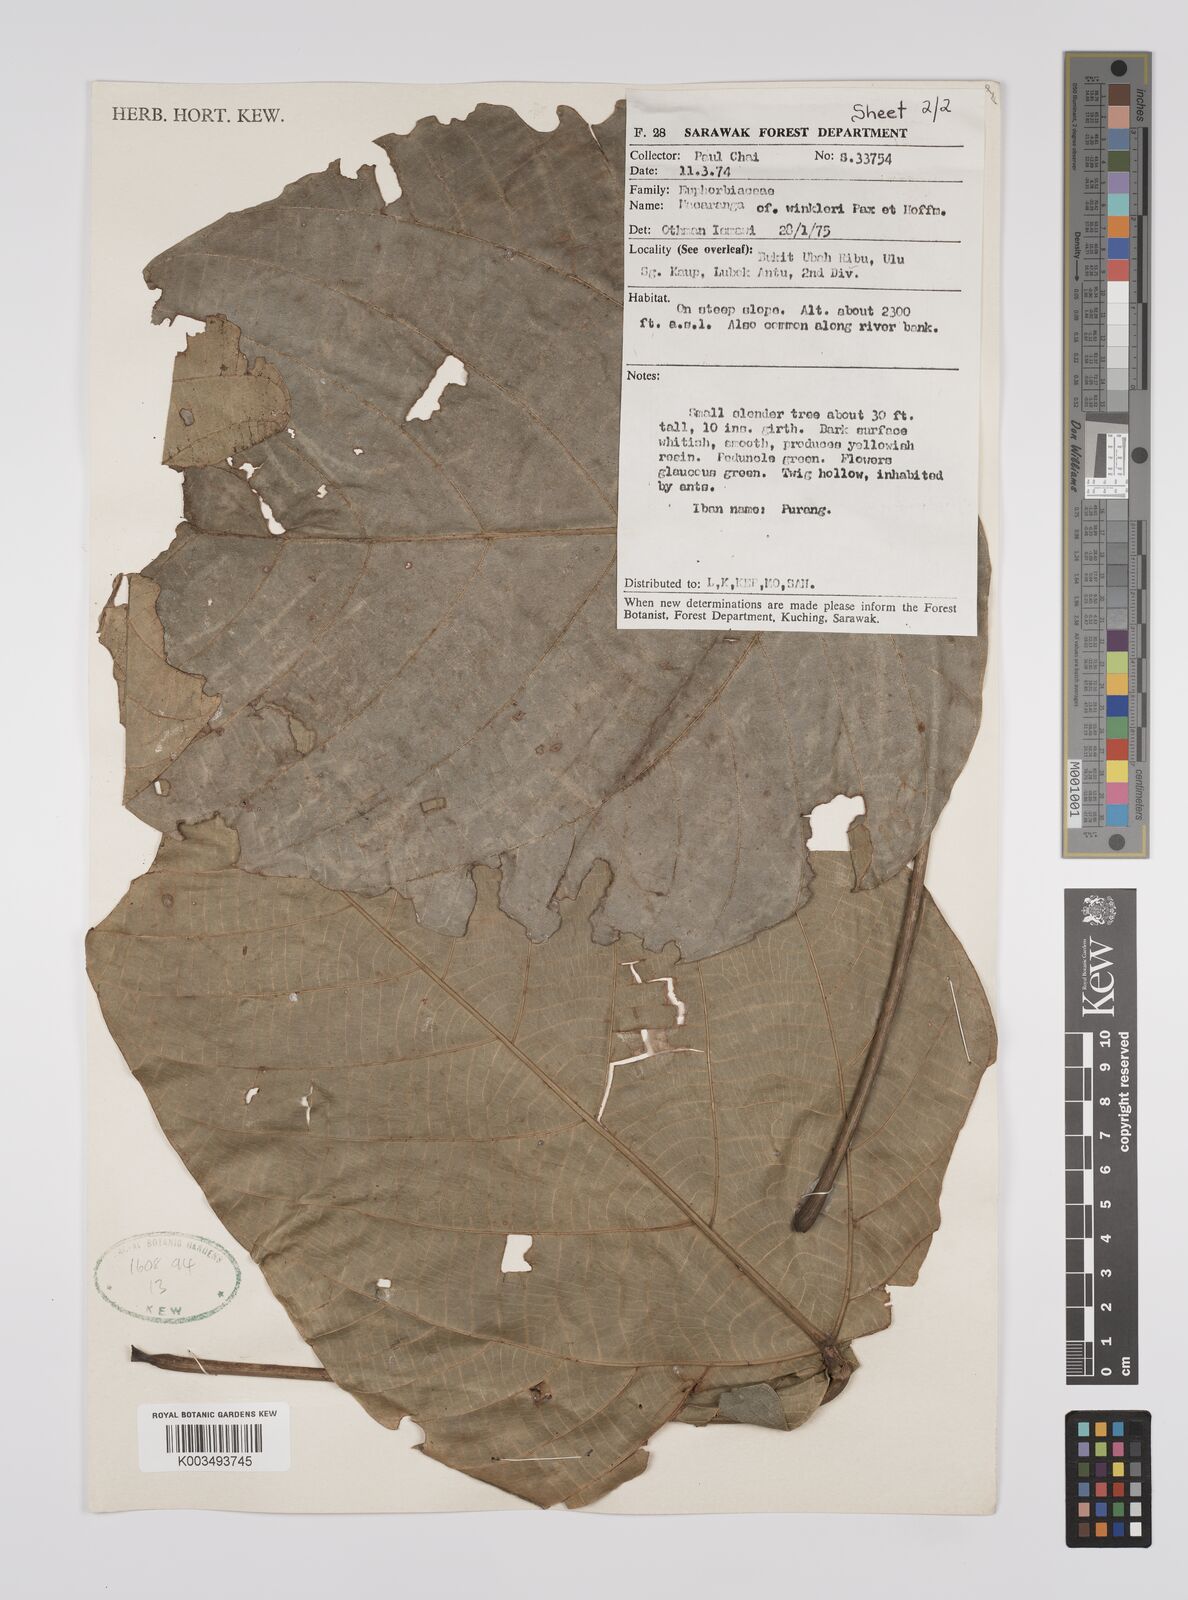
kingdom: Plantae
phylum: Tracheophyta
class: Magnoliopsida
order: Malpighiales
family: Euphorbiaceae
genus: Macaranga
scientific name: Macaranga winkleri
